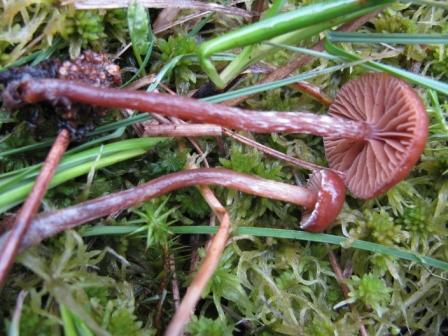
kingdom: Fungi
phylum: Basidiomycota
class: Agaricomycetes
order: Agaricales
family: Hymenogastraceae
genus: Galerina
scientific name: Galerina stagnina
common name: sortfodet hjelmhat
